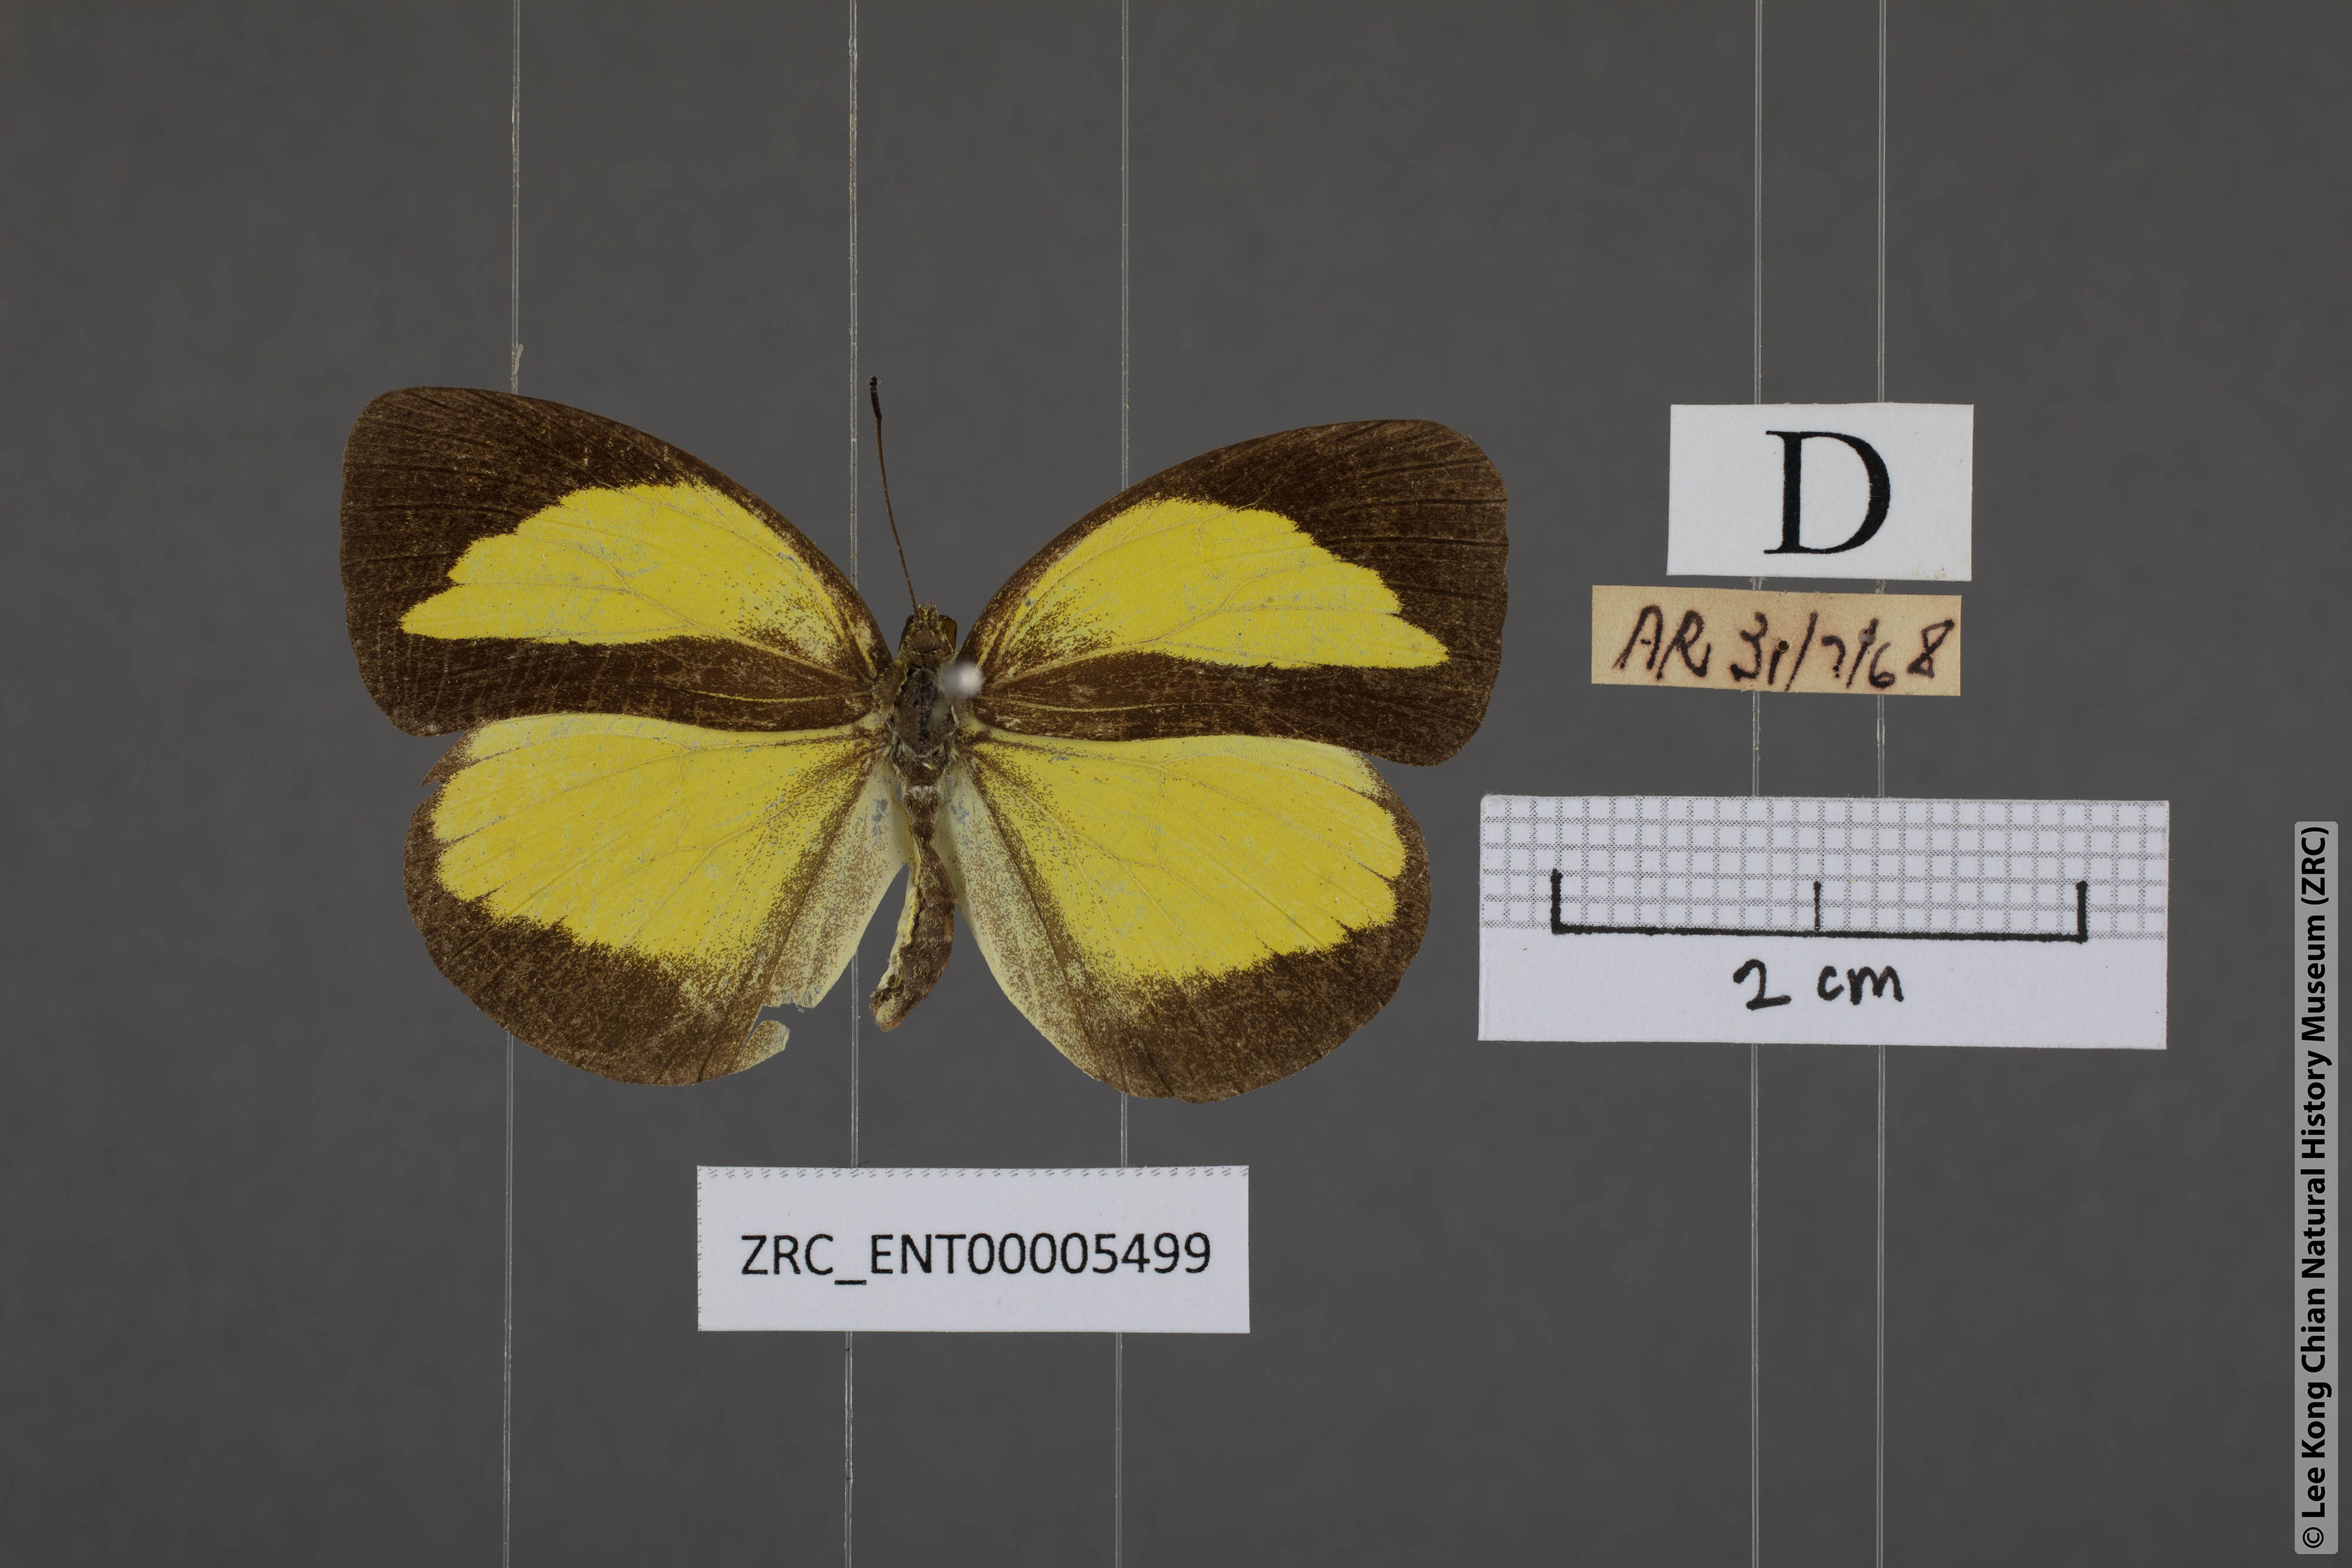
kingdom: Animalia
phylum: Arthropoda
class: Insecta
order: Lepidoptera
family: Pieridae
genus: Eurema
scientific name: Eurema nicevillei
